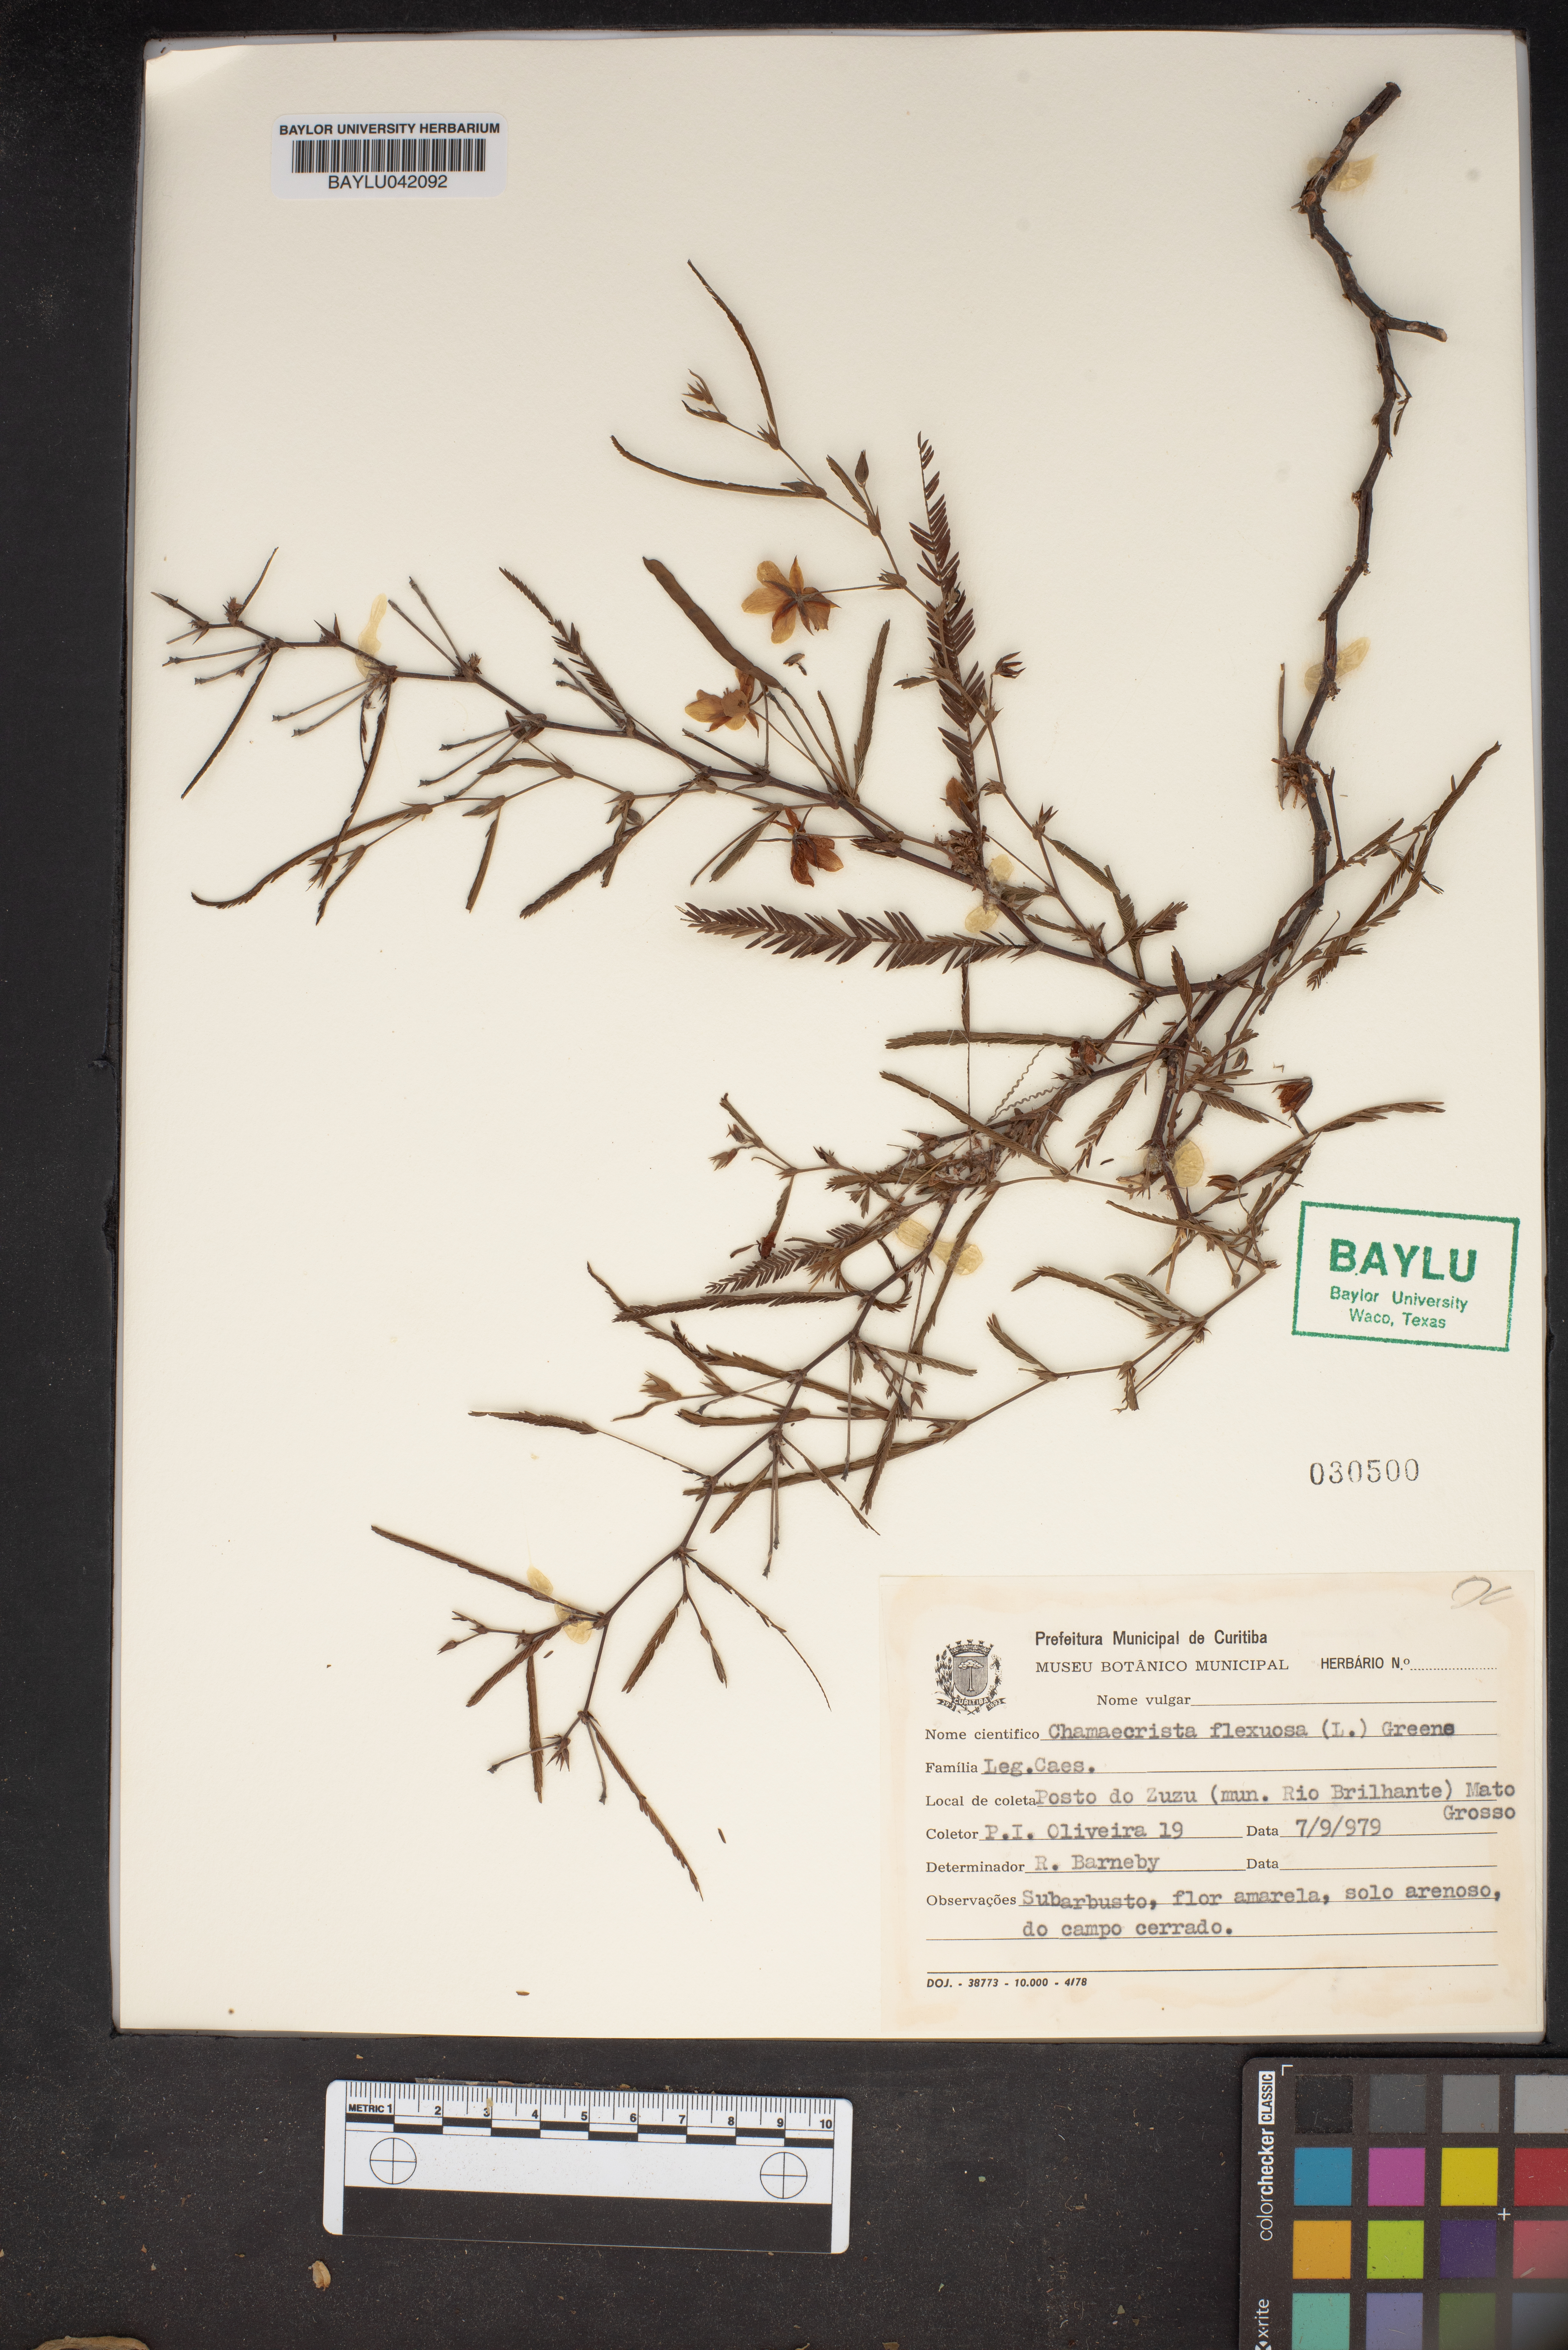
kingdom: Plantae
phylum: Tracheophyta
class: Magnoliopsida
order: Fabales
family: Fabaceae
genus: Chamaecrista
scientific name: Chamaecrista flexuosa
